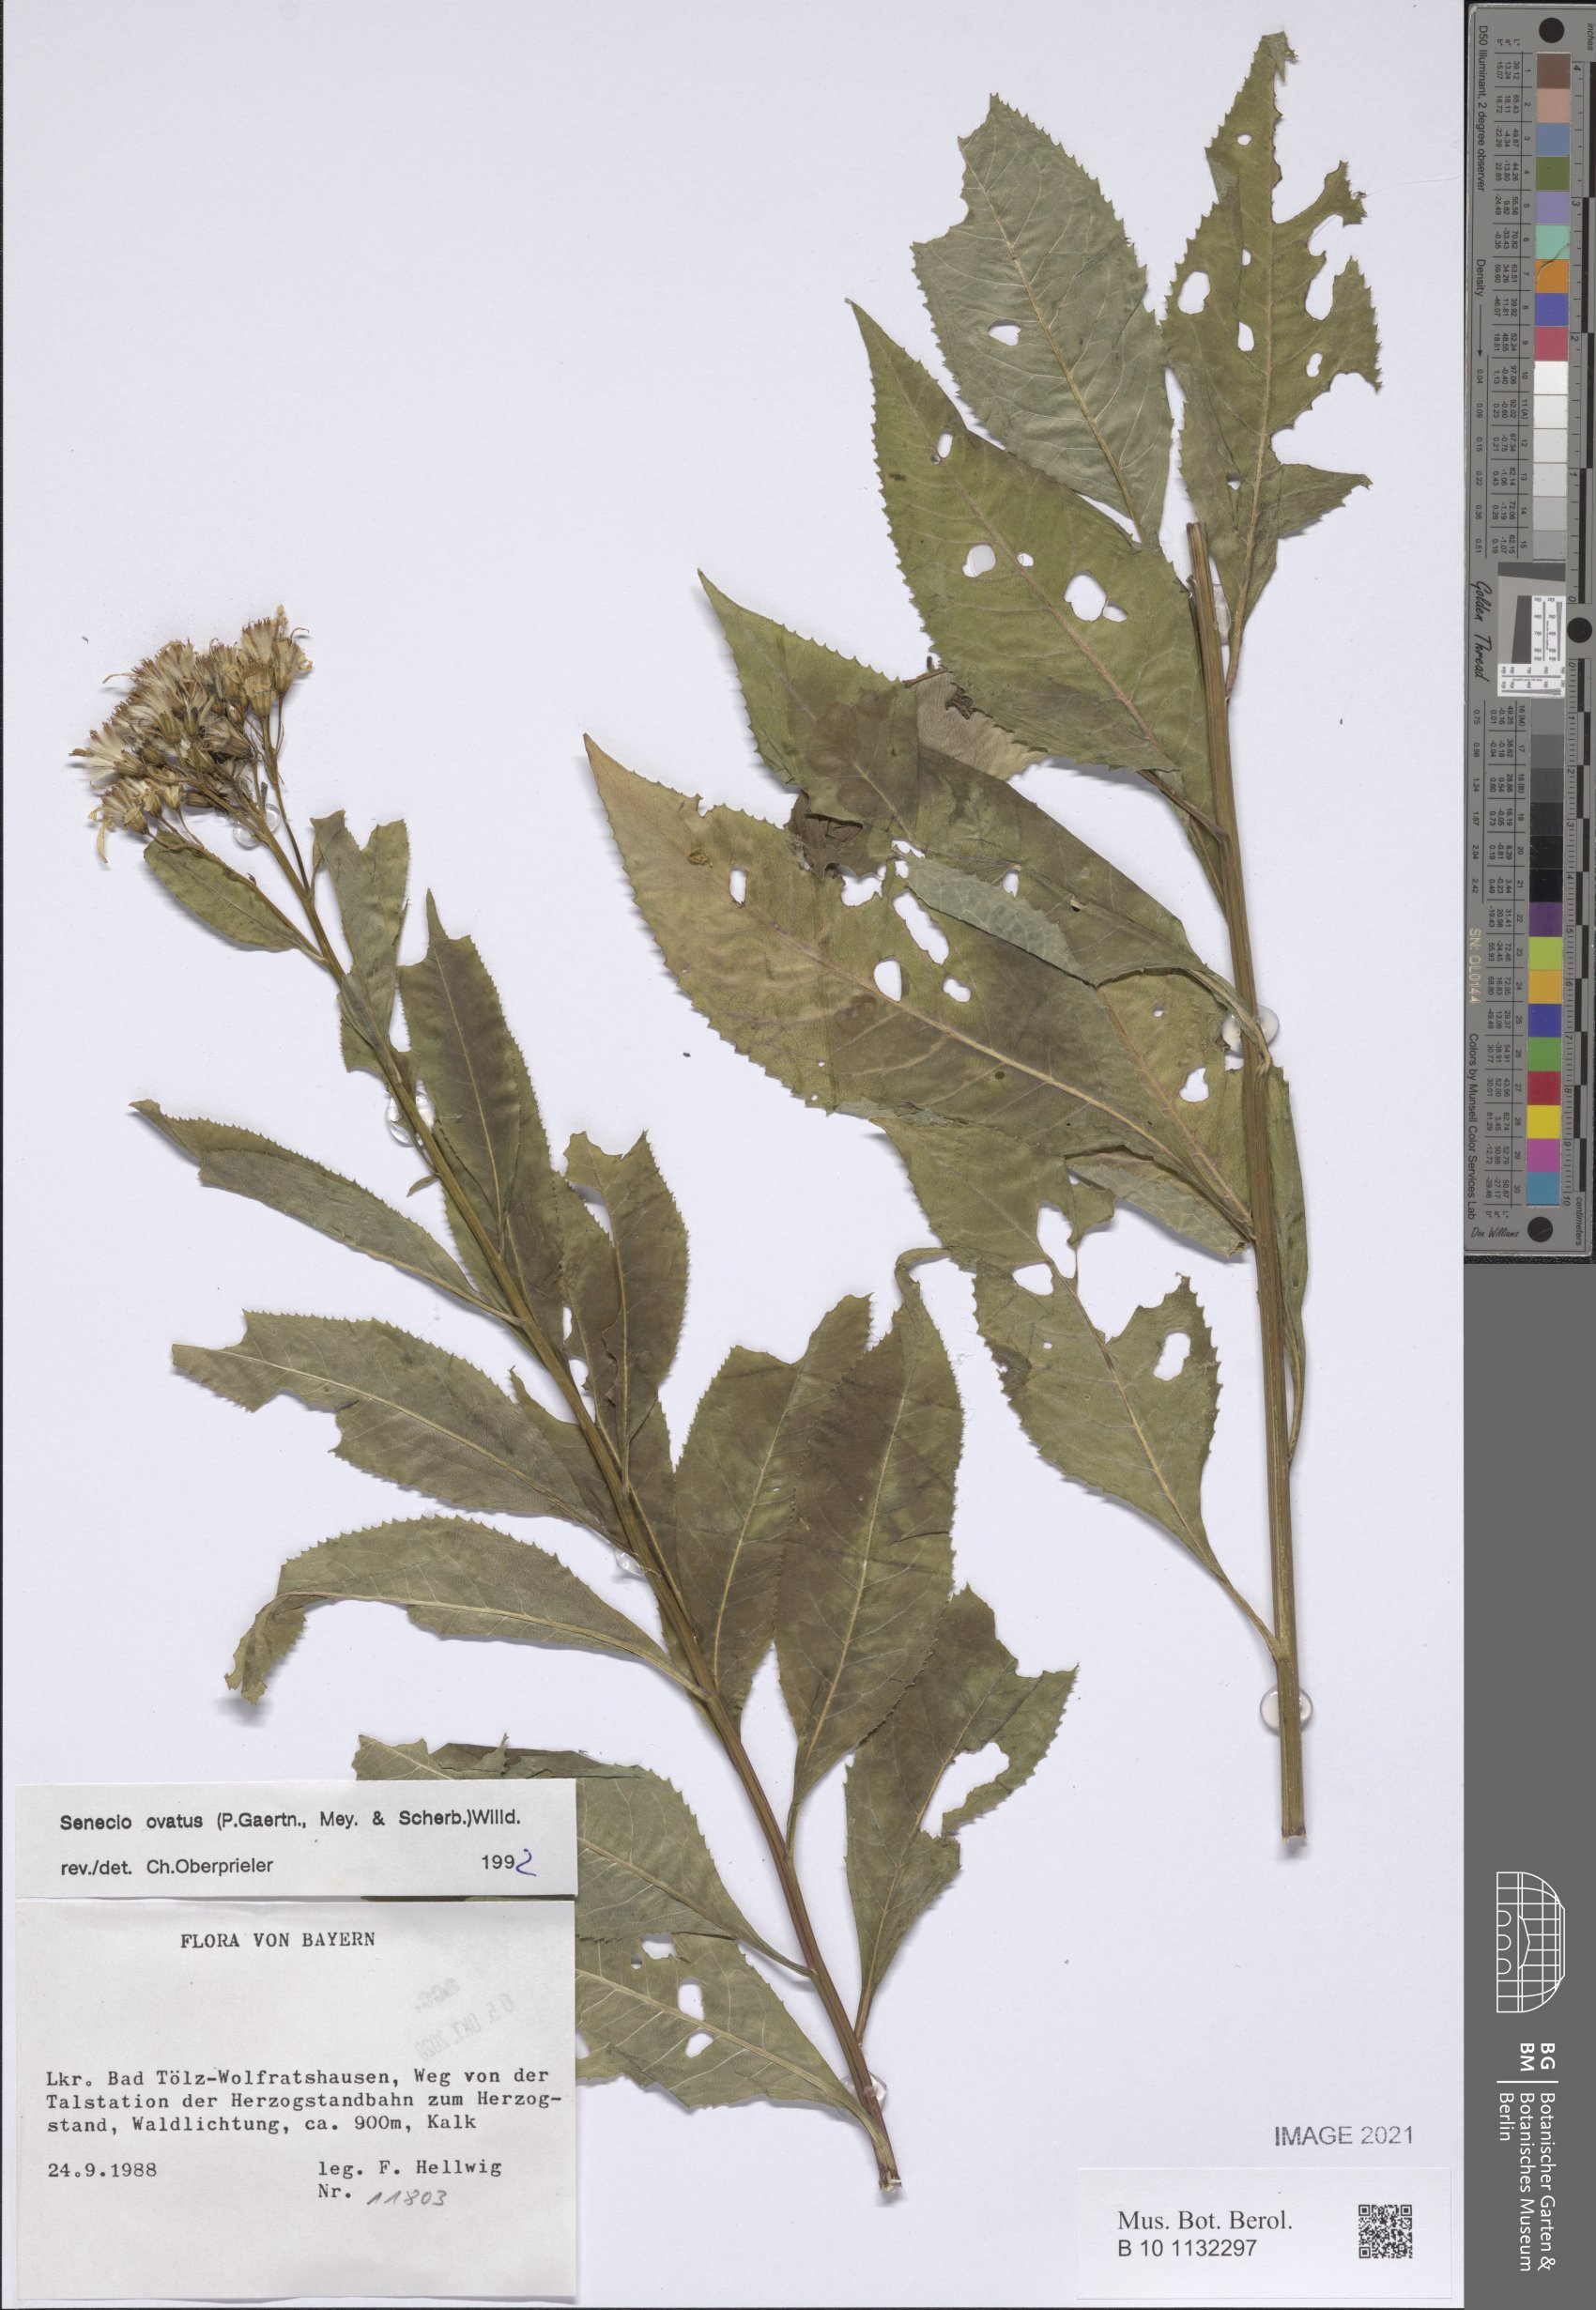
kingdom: Plantae
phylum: Tracheophyta
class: Magnoliopsida
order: Asterales
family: Asteraceae
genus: Senecio
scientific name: Senecio ovatus
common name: Wood ragwort
